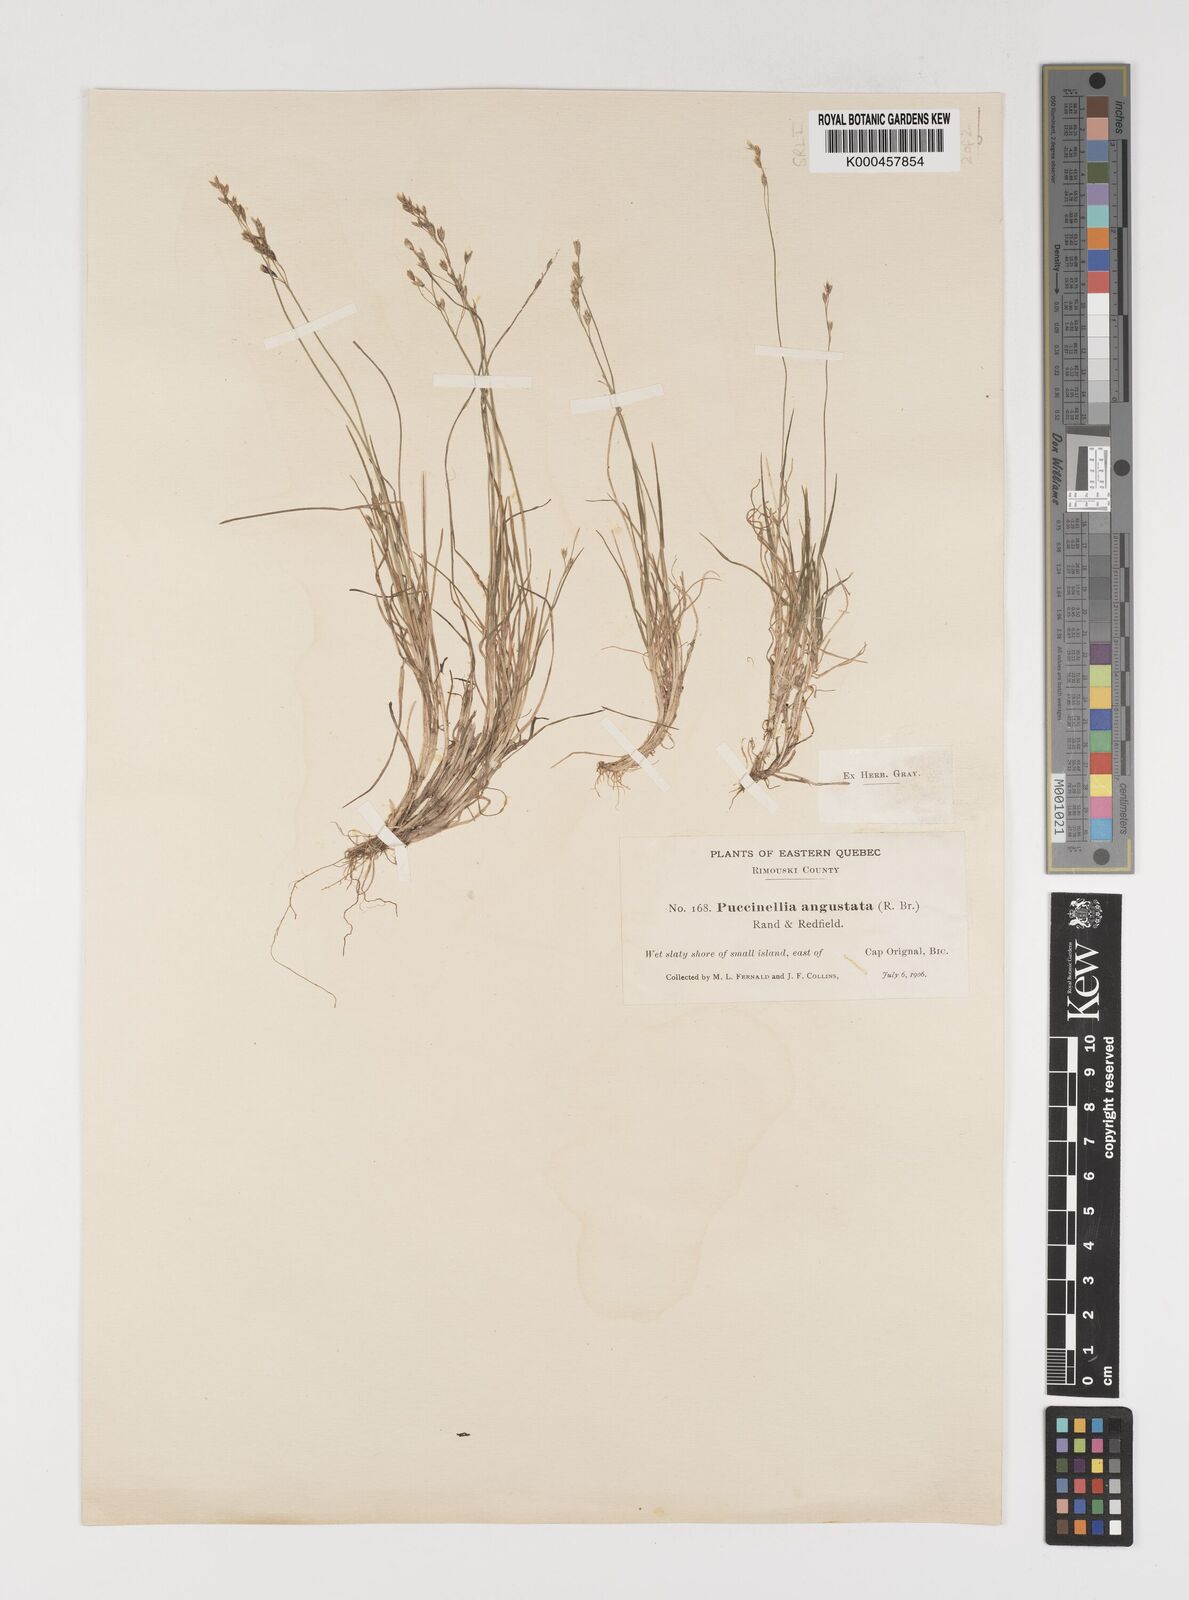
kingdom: Plantae
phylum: Tracheophyta
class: Liliopsida
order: Poales
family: Poaceae
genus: Puccinellia
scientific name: Puccinellia angustata
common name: Narrow alkaligrass
